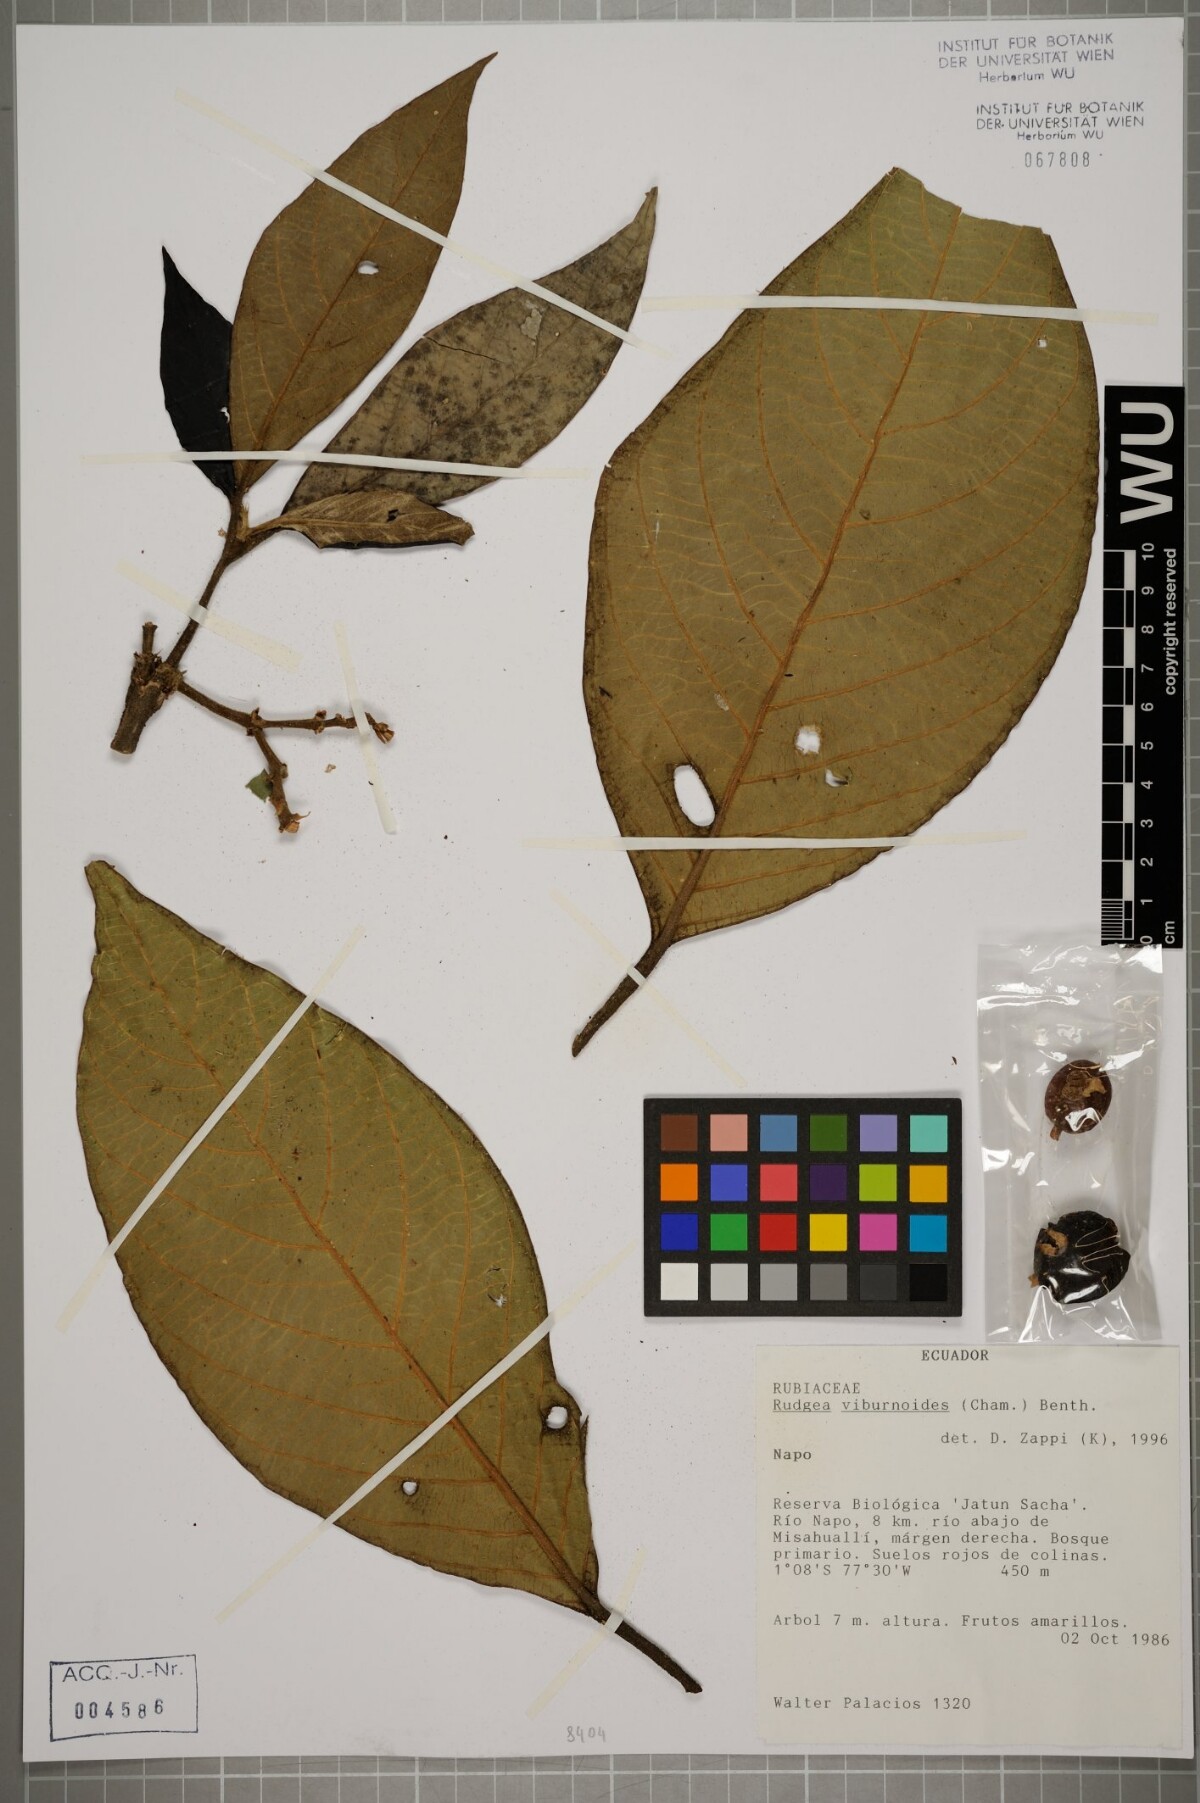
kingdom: Plantae
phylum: Tracheophyta
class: Magnoliopsida
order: Gentianales
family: Rubiaceae
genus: Rudgea
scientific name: Rudgea viburnoides
